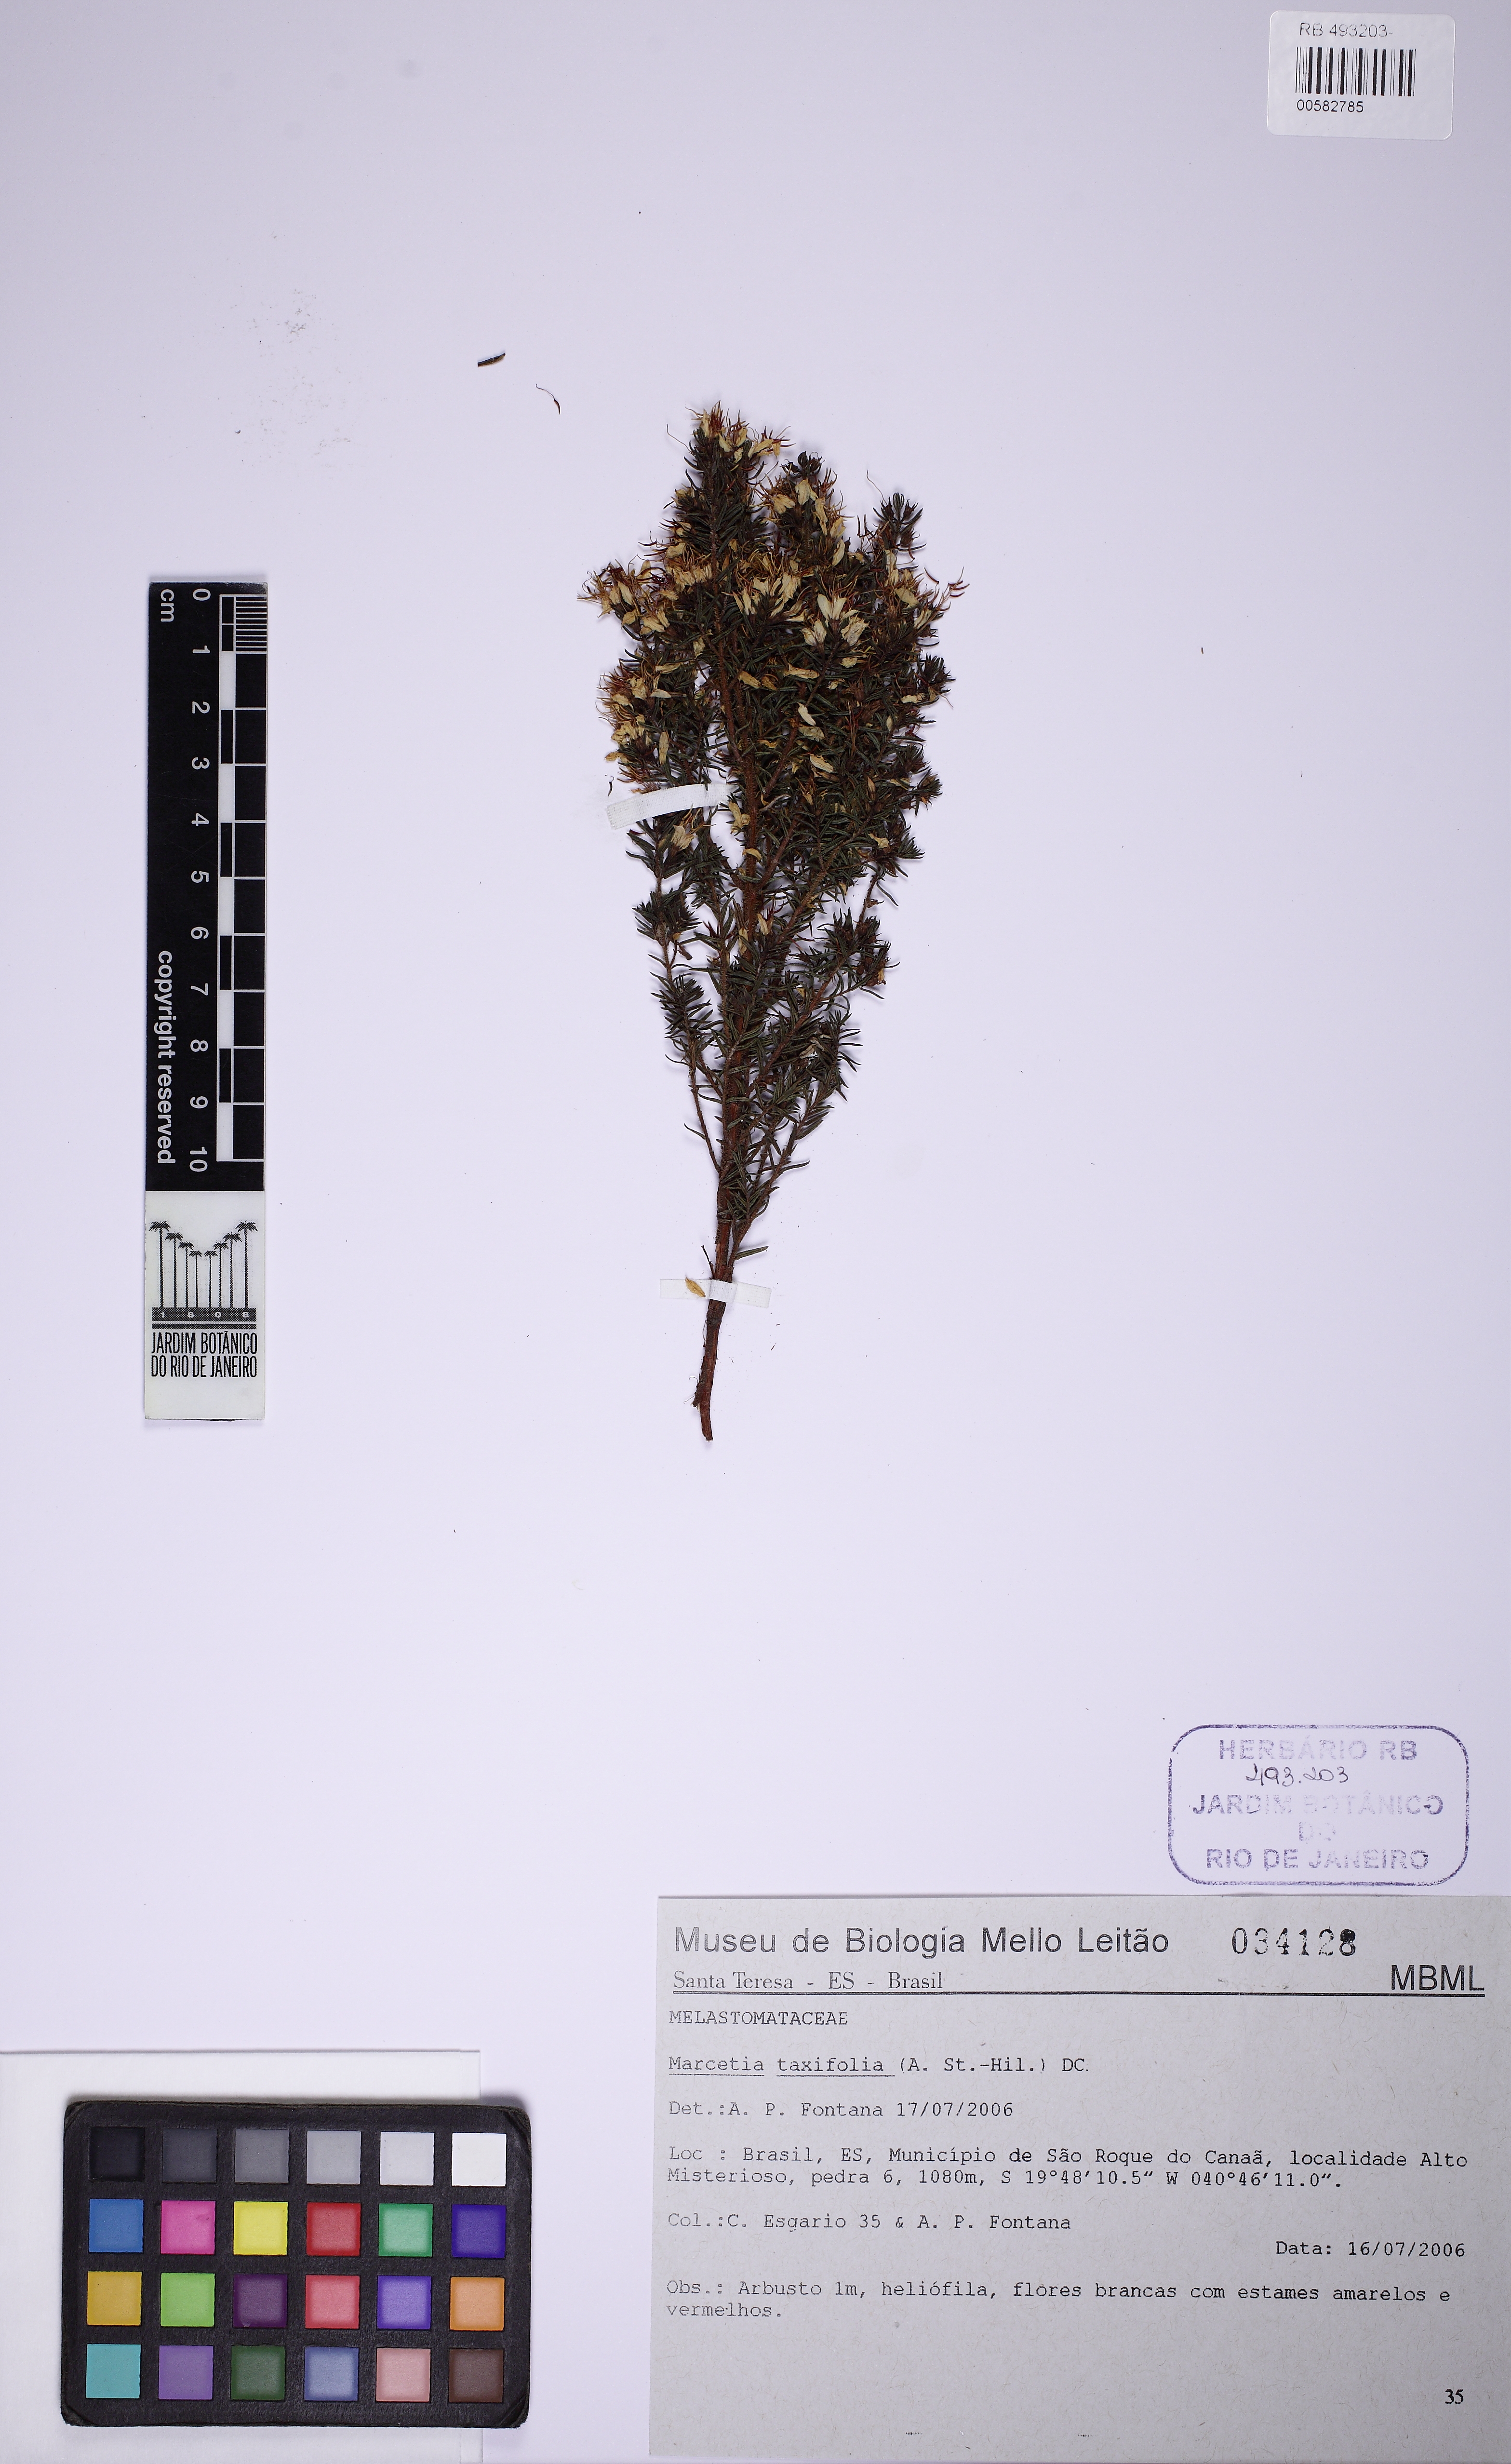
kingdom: Plantae
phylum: Tracheophyta
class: Magnoliopsida
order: Myrtales
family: Melastomataceae
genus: Marcetia
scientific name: Marcetia taxifolia
